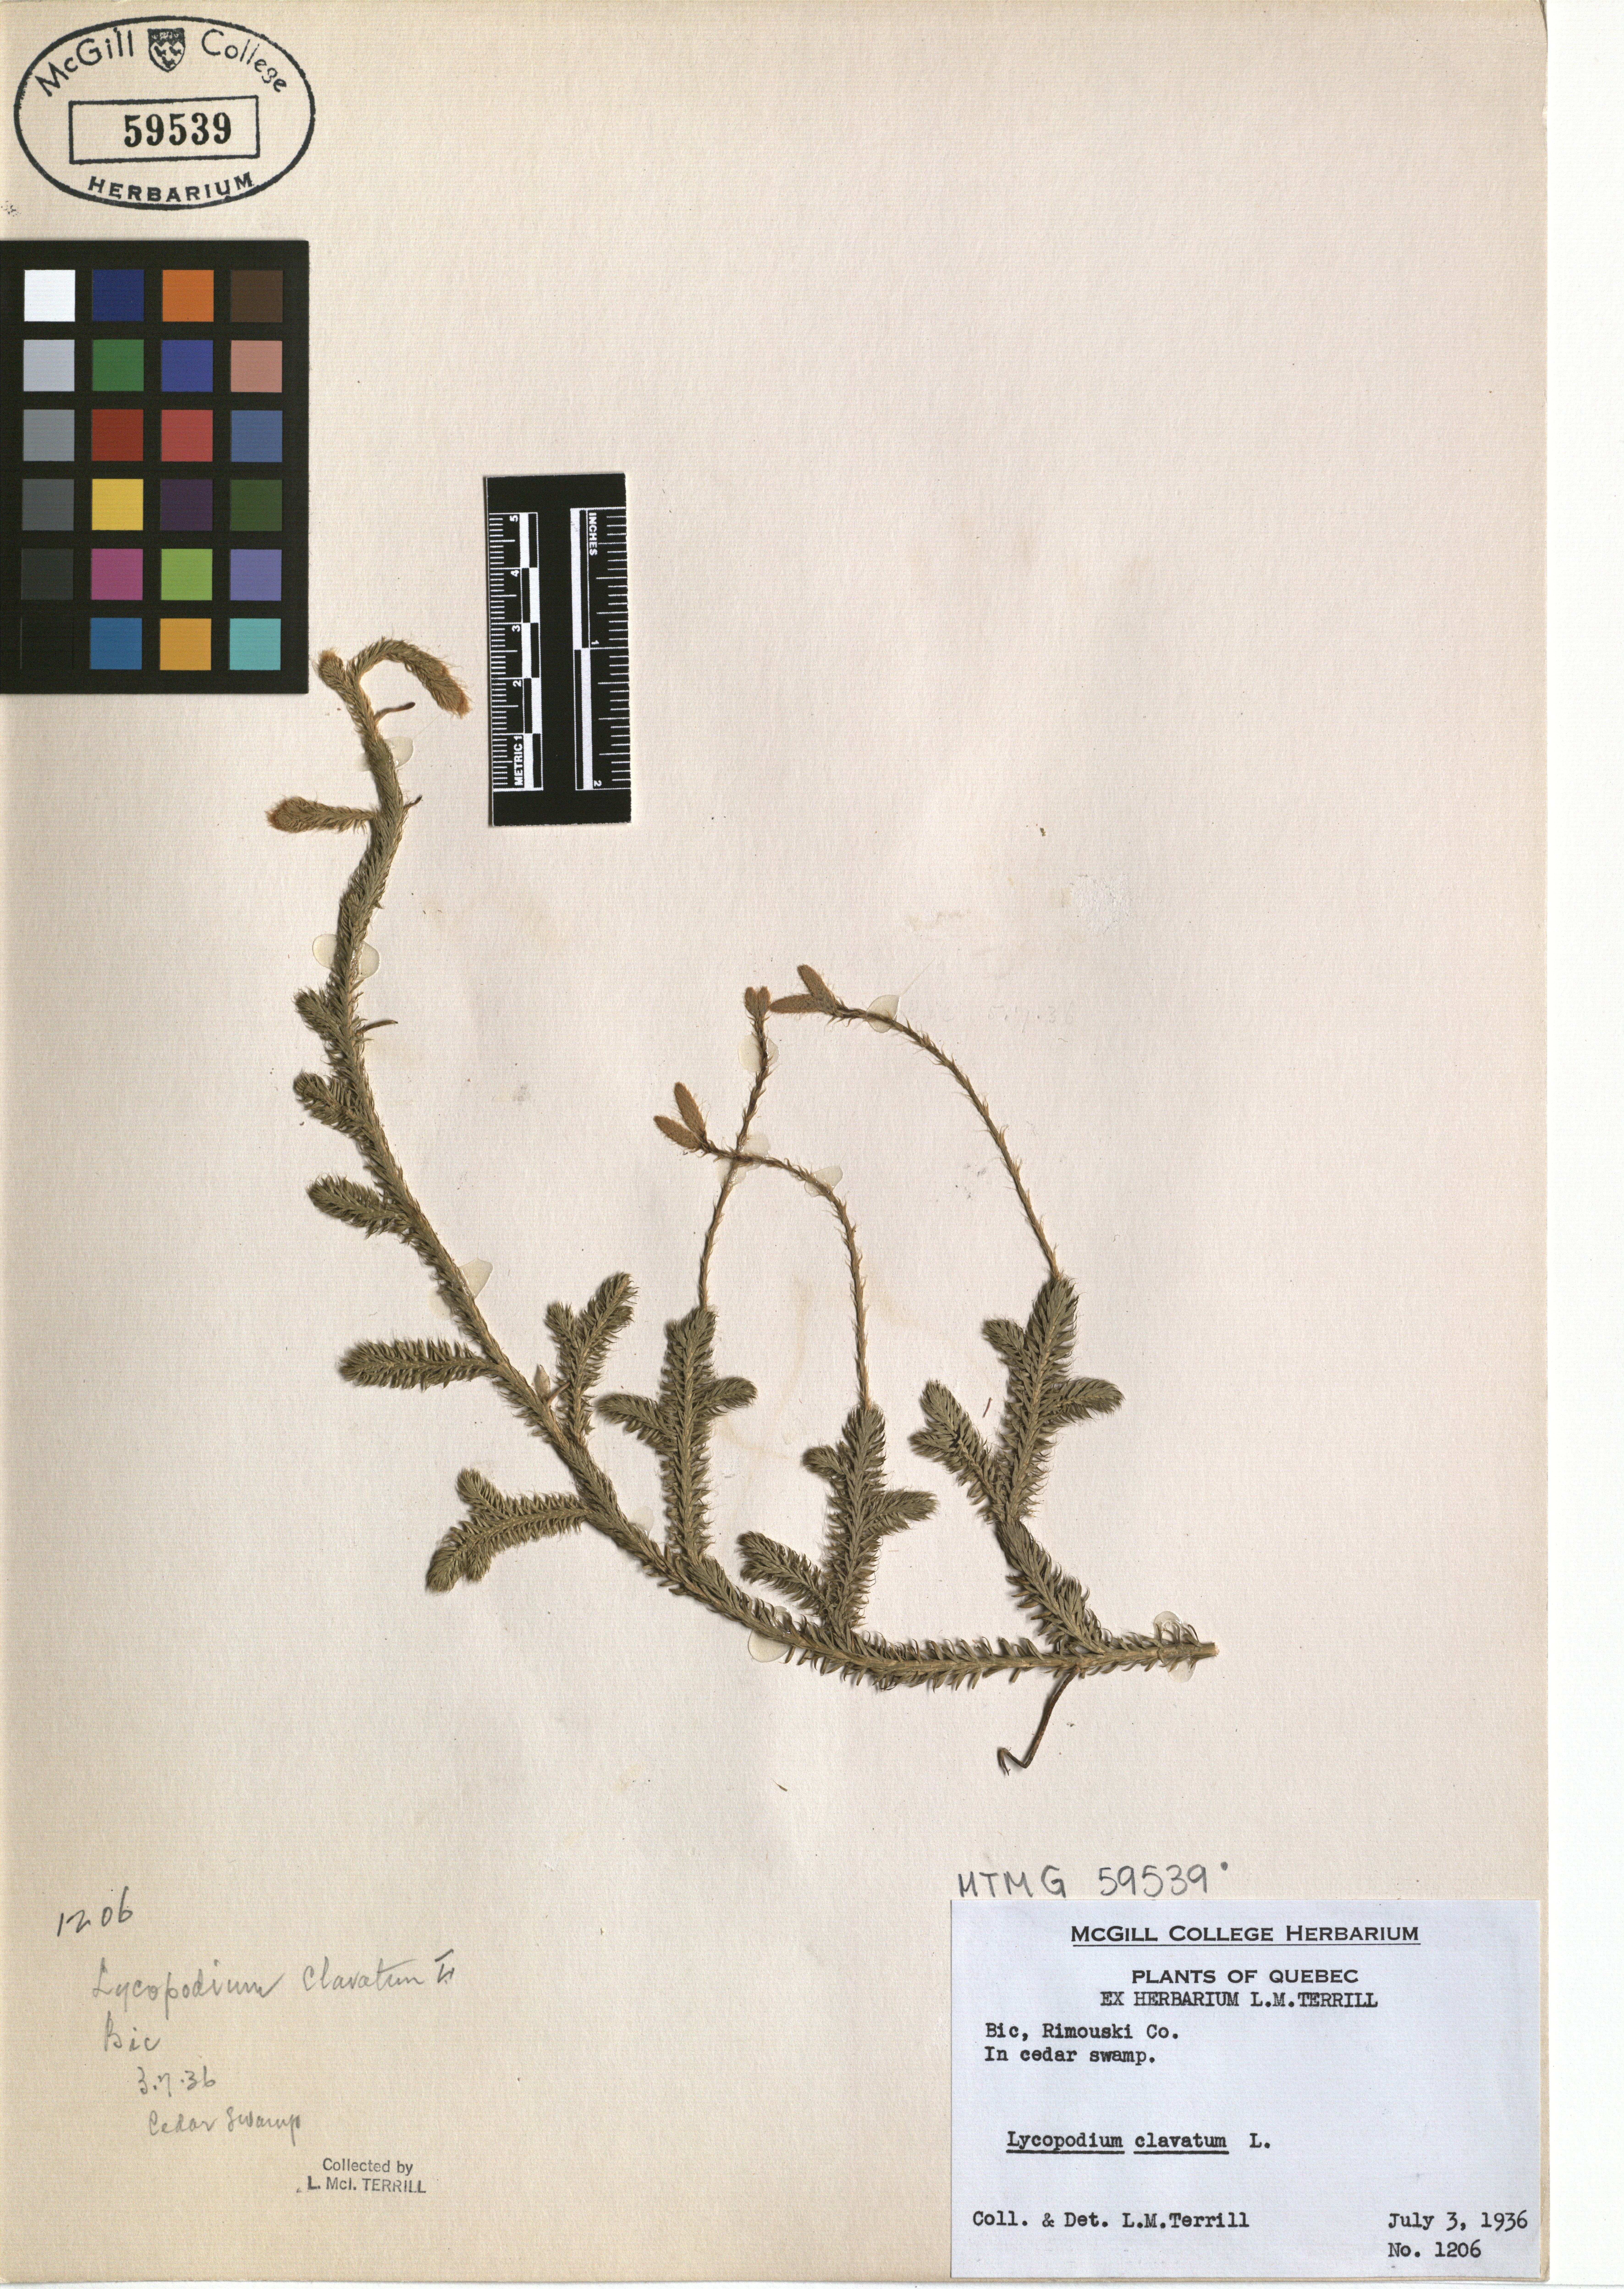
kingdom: Plantae
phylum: Tracheophyta
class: Lycopodiopsida
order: Lycopodiales
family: Lycopodiaceae
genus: Lycopodium
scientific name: Lycopodium clavatum
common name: Stag's-horn clubmoss
